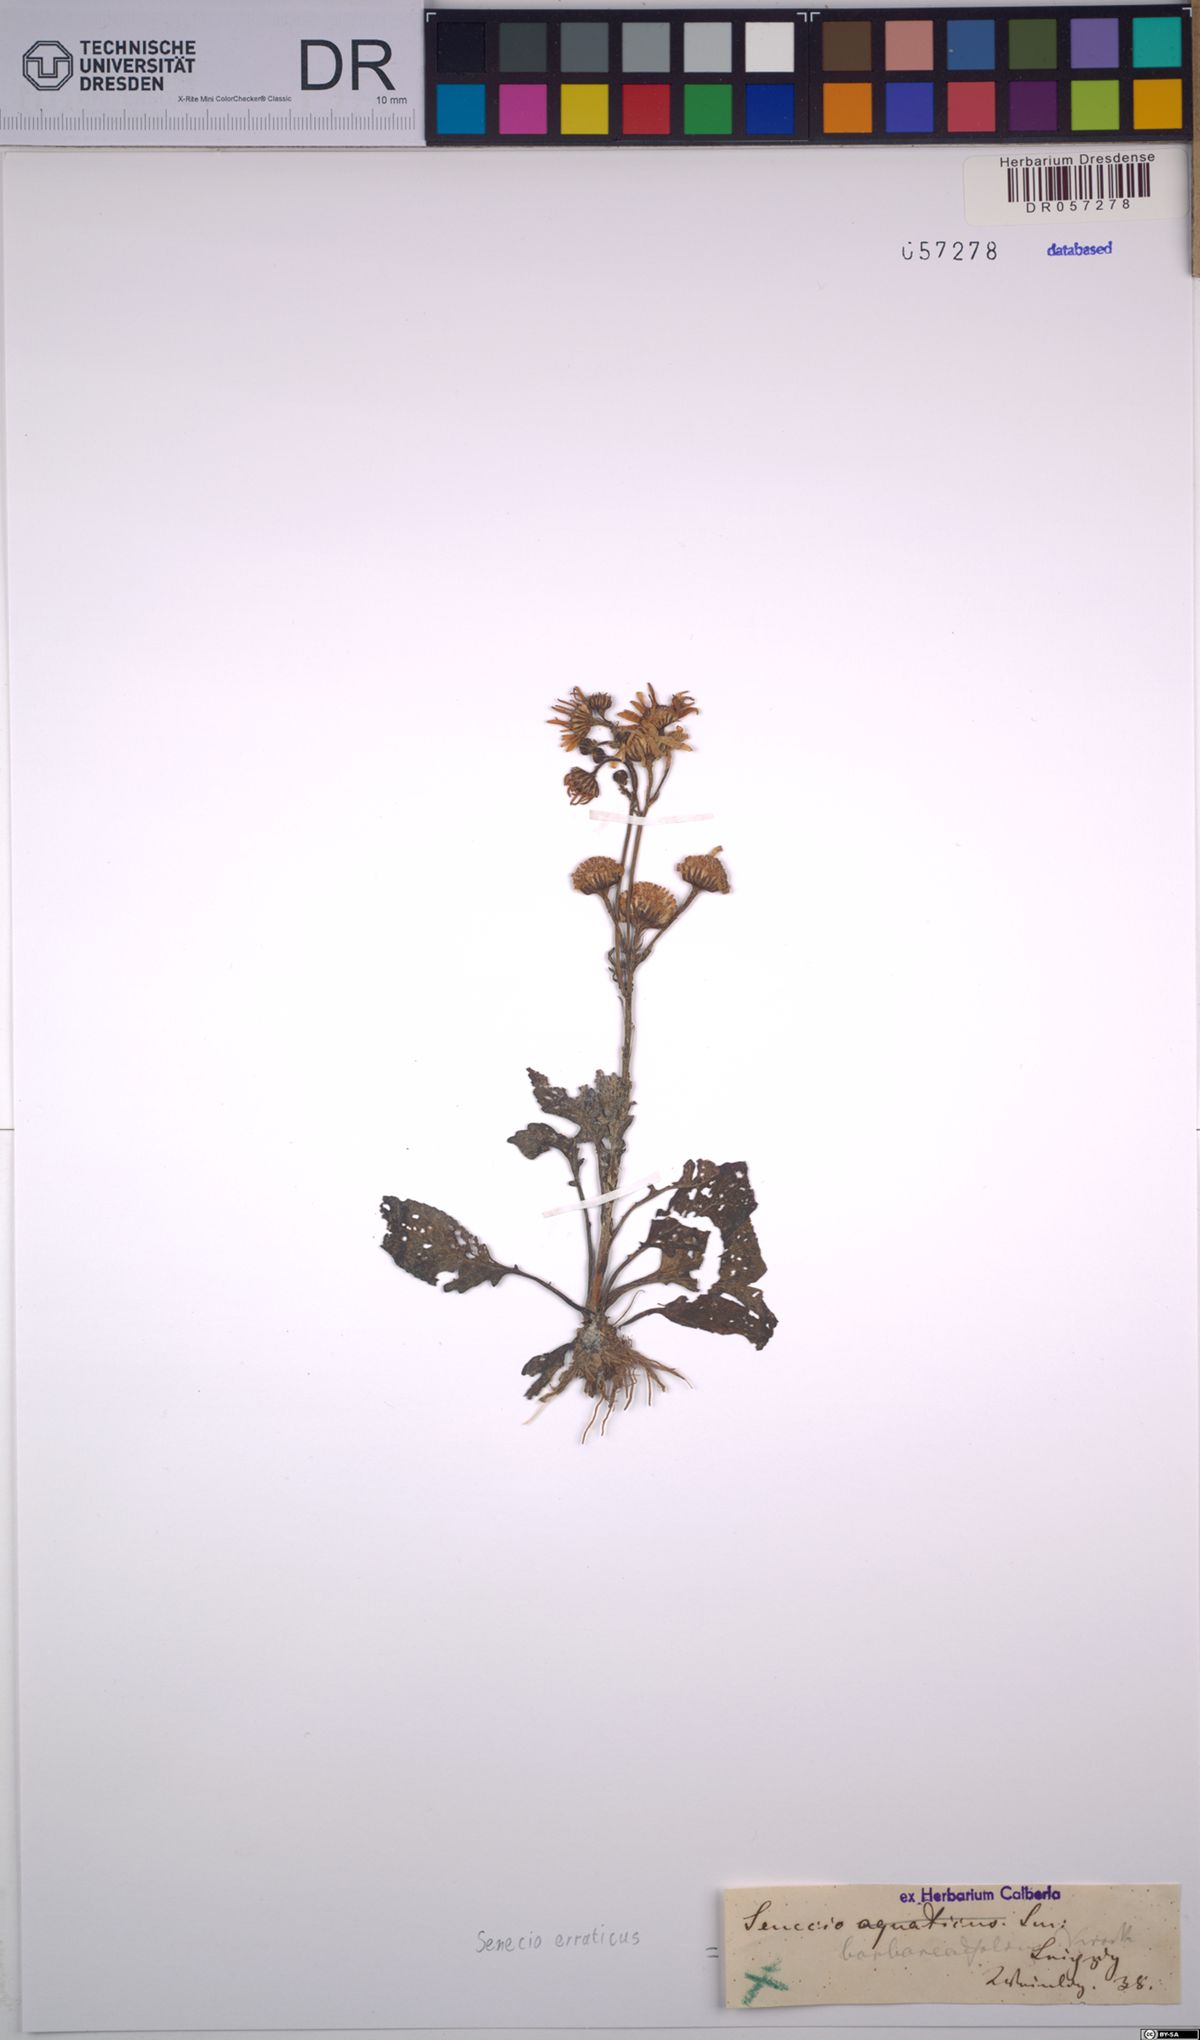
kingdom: Plantae
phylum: Tracheophyta
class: Magnoliopsida
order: Asterales
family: Asteraceae
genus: Jacobaea
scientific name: Jacobaea erratica
